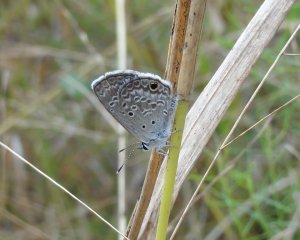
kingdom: Animalia
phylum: Arthropoda
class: Insecta
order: Lepidoptera
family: Lycaenidae
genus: Hemiargus
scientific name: Hemiargus ceraunus
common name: Ceraunus Blue
